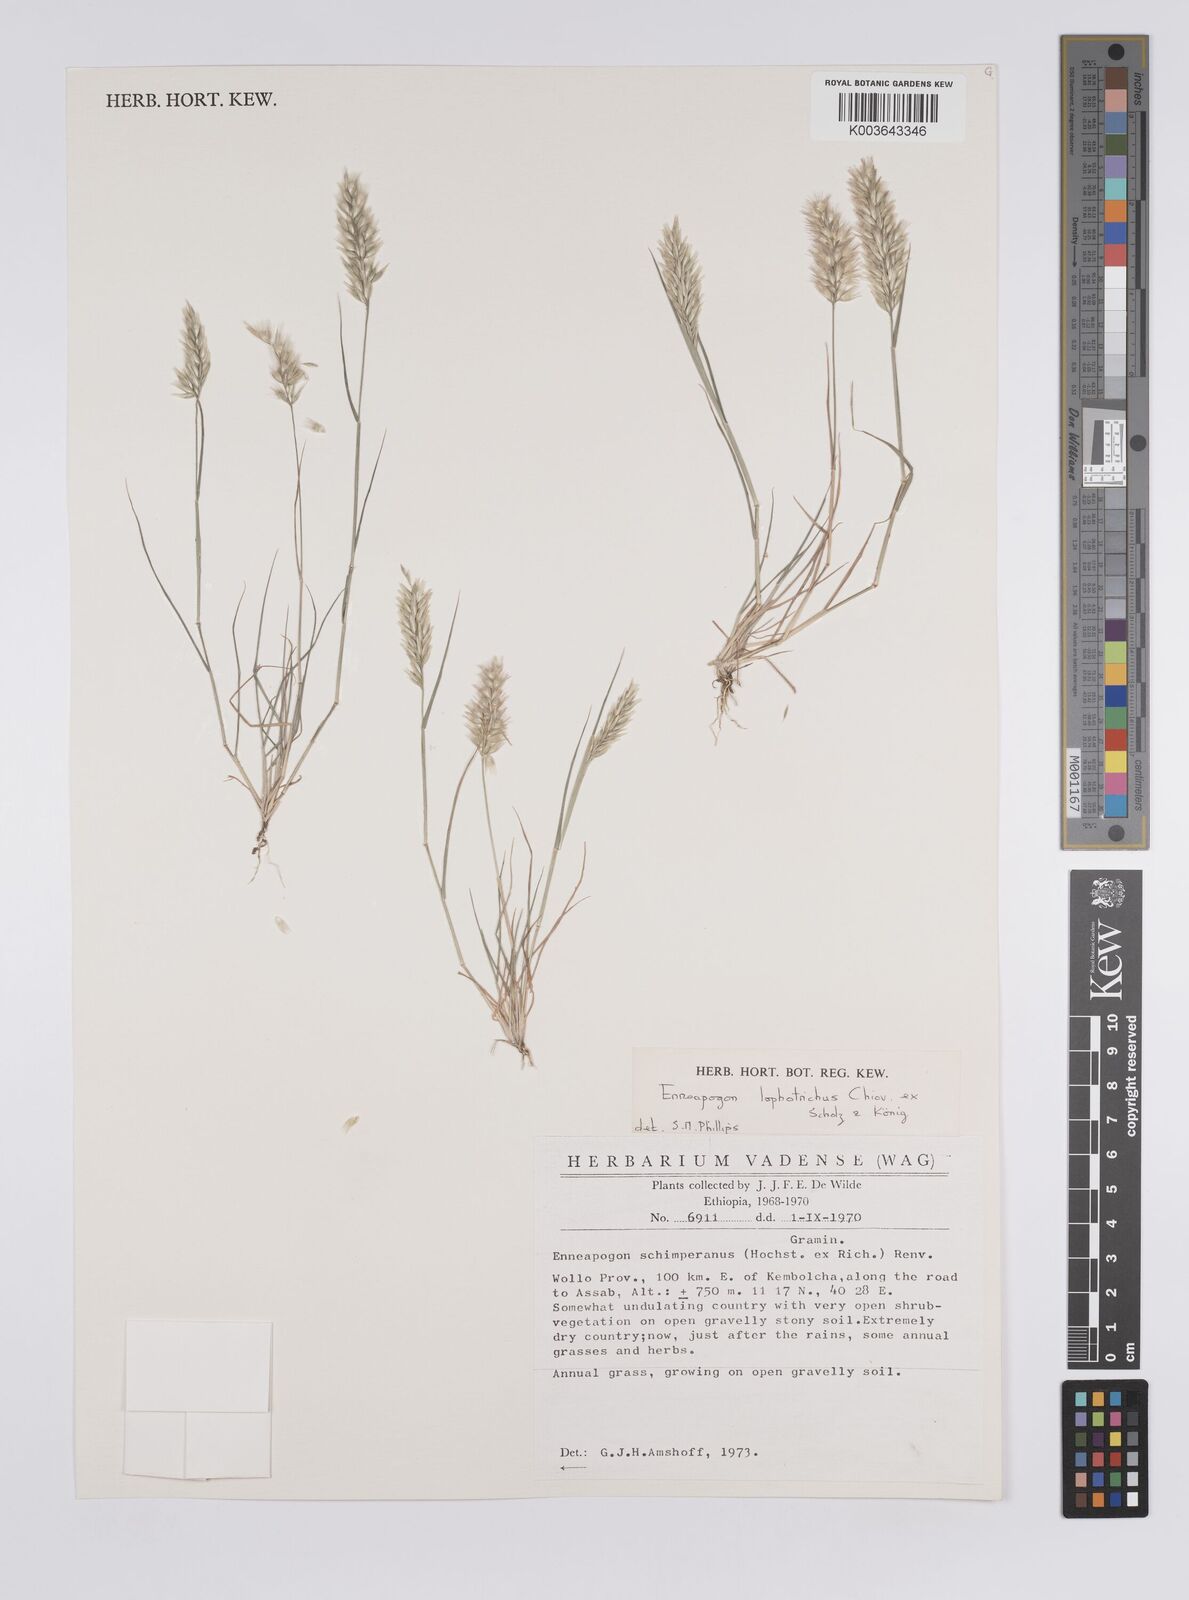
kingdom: Plantae
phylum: Tracheophyta
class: Liliopsida
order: Poales
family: Poaceae
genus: Enneapogon
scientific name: Enneapogon lophotrichus
